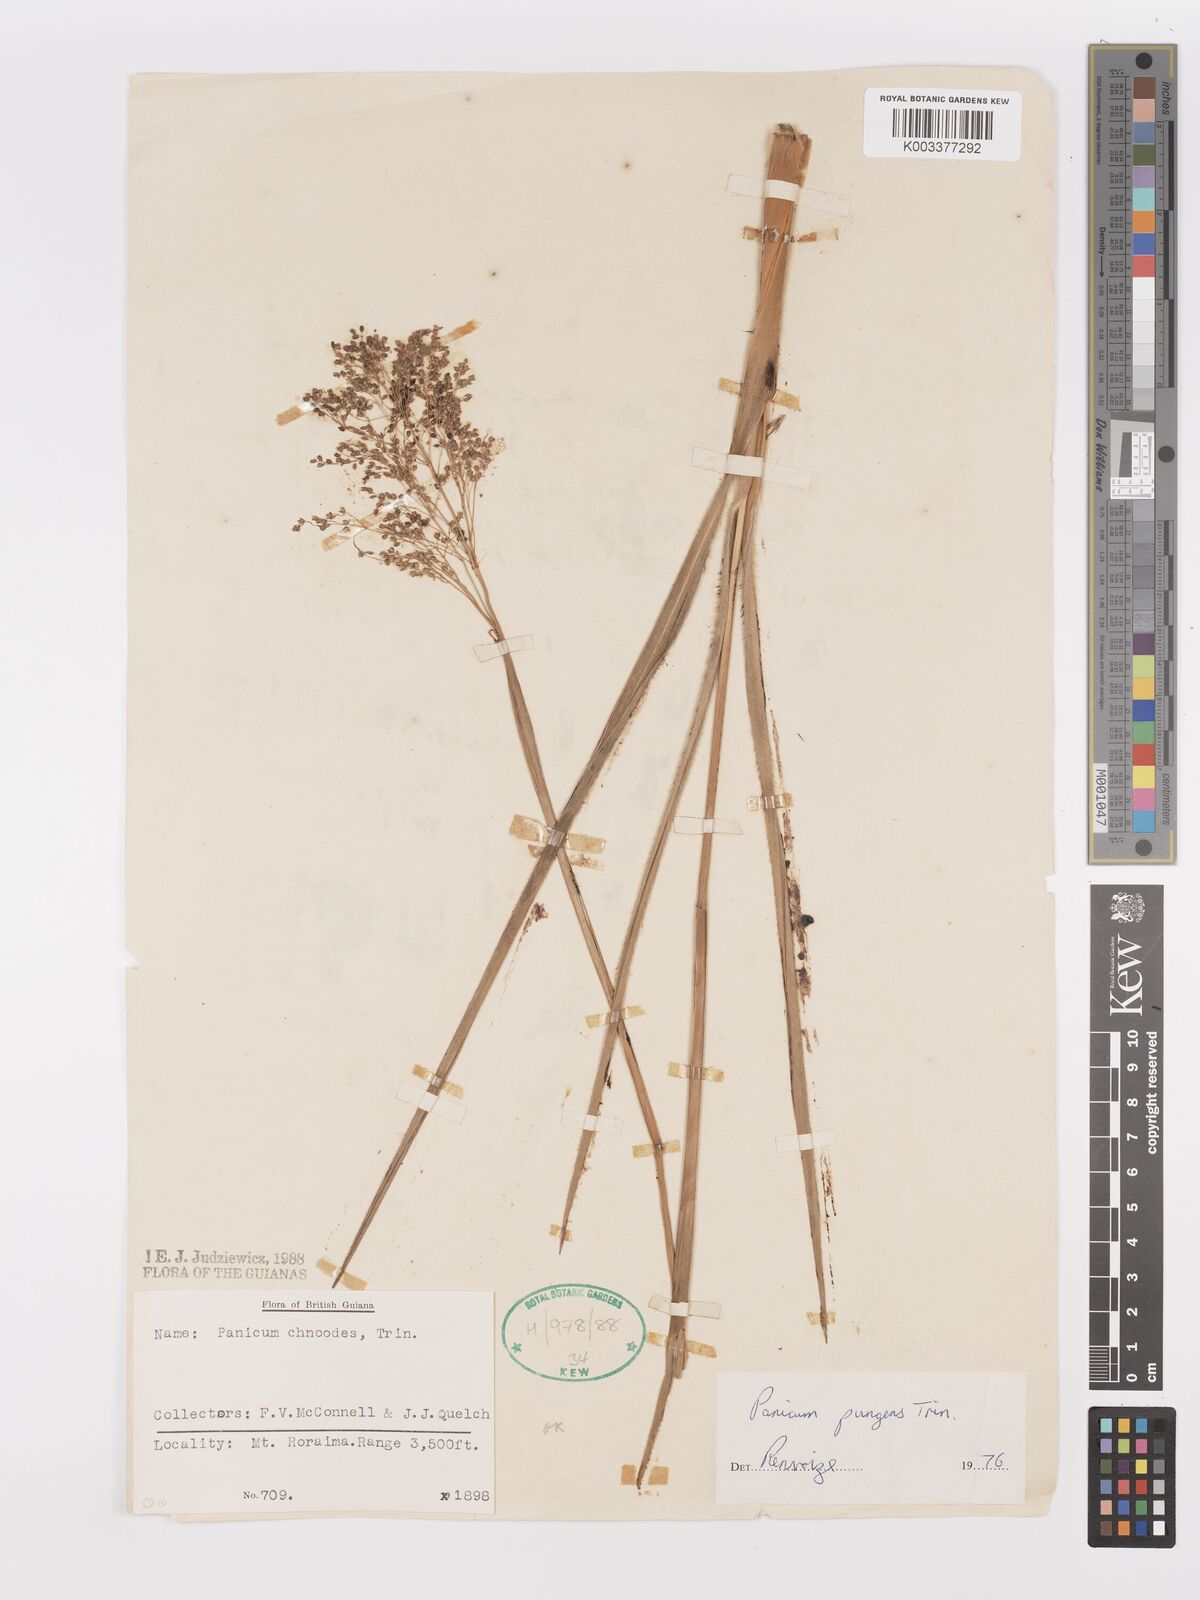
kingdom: Plantae
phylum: Tracheophyta
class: Liliopsida
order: Poales
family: Poaceae
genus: Apochloa
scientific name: Apochloa chnoodes
